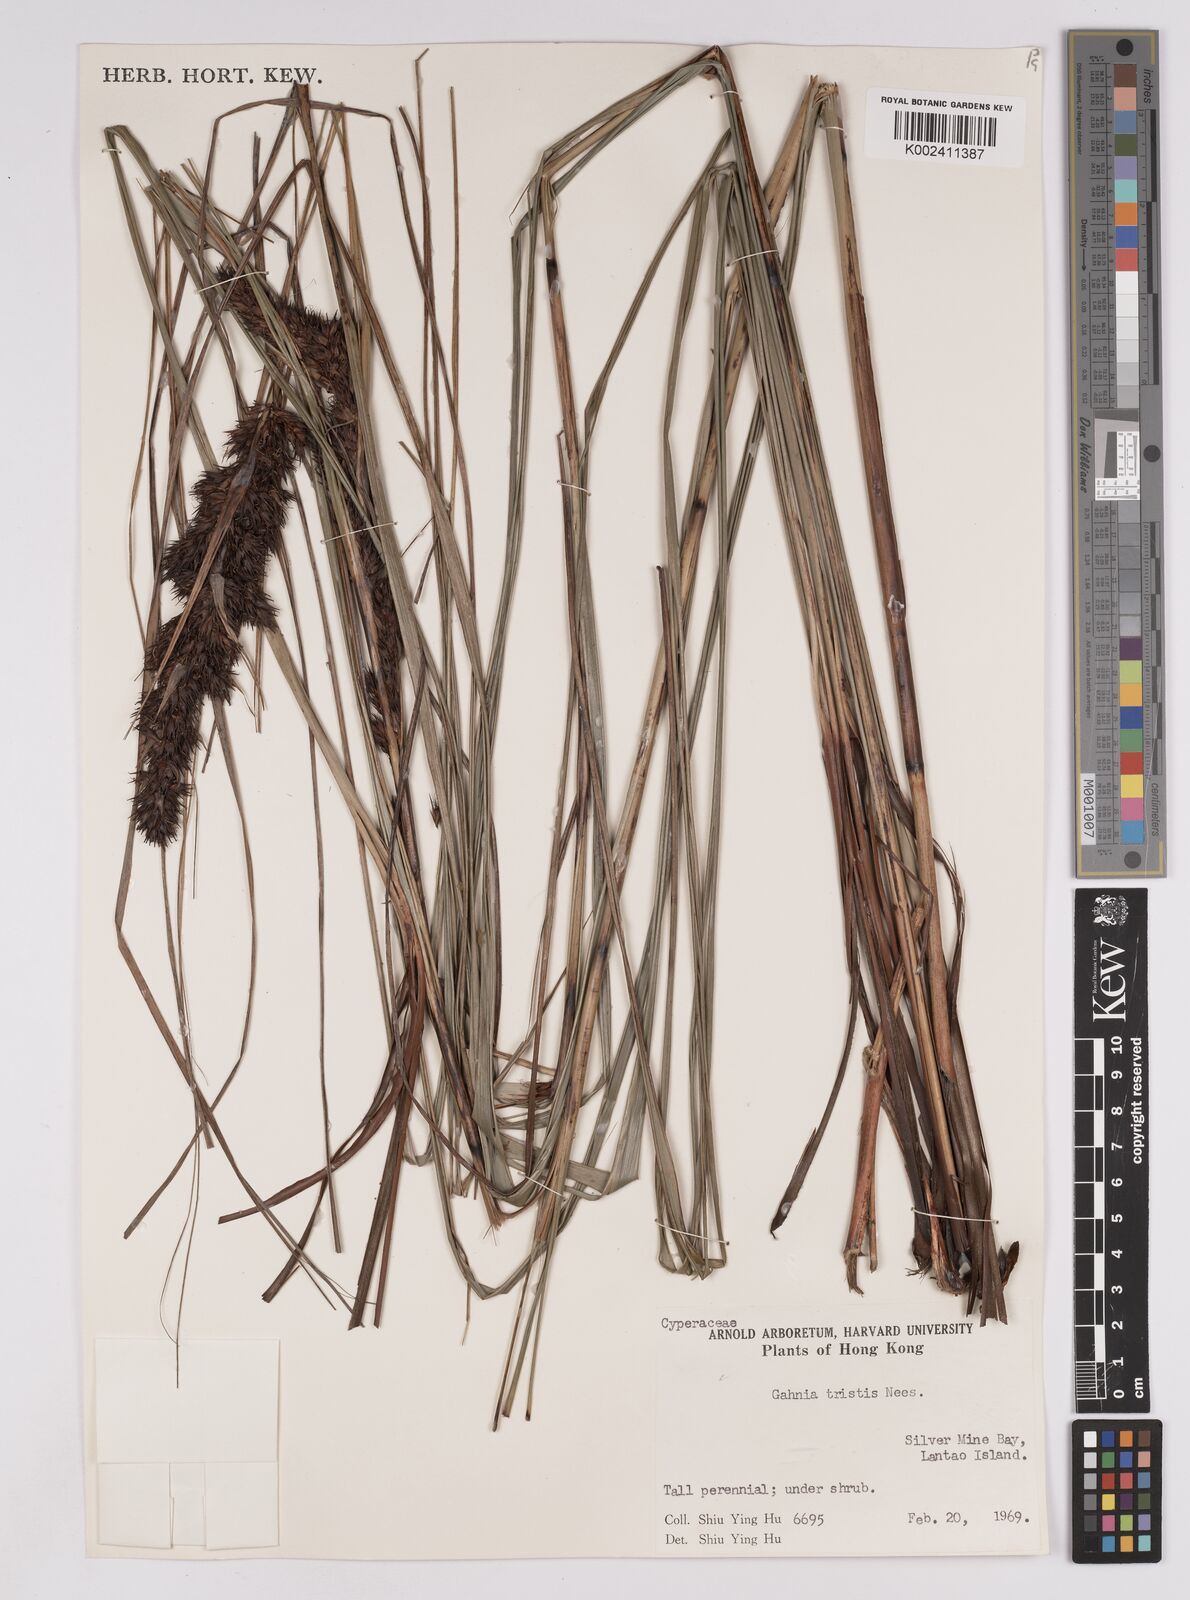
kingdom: Plantae
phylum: Tracheophyta
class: Liliopsida
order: Poales
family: Cyperaceae
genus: Gahnia
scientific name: Gahnia tristis
